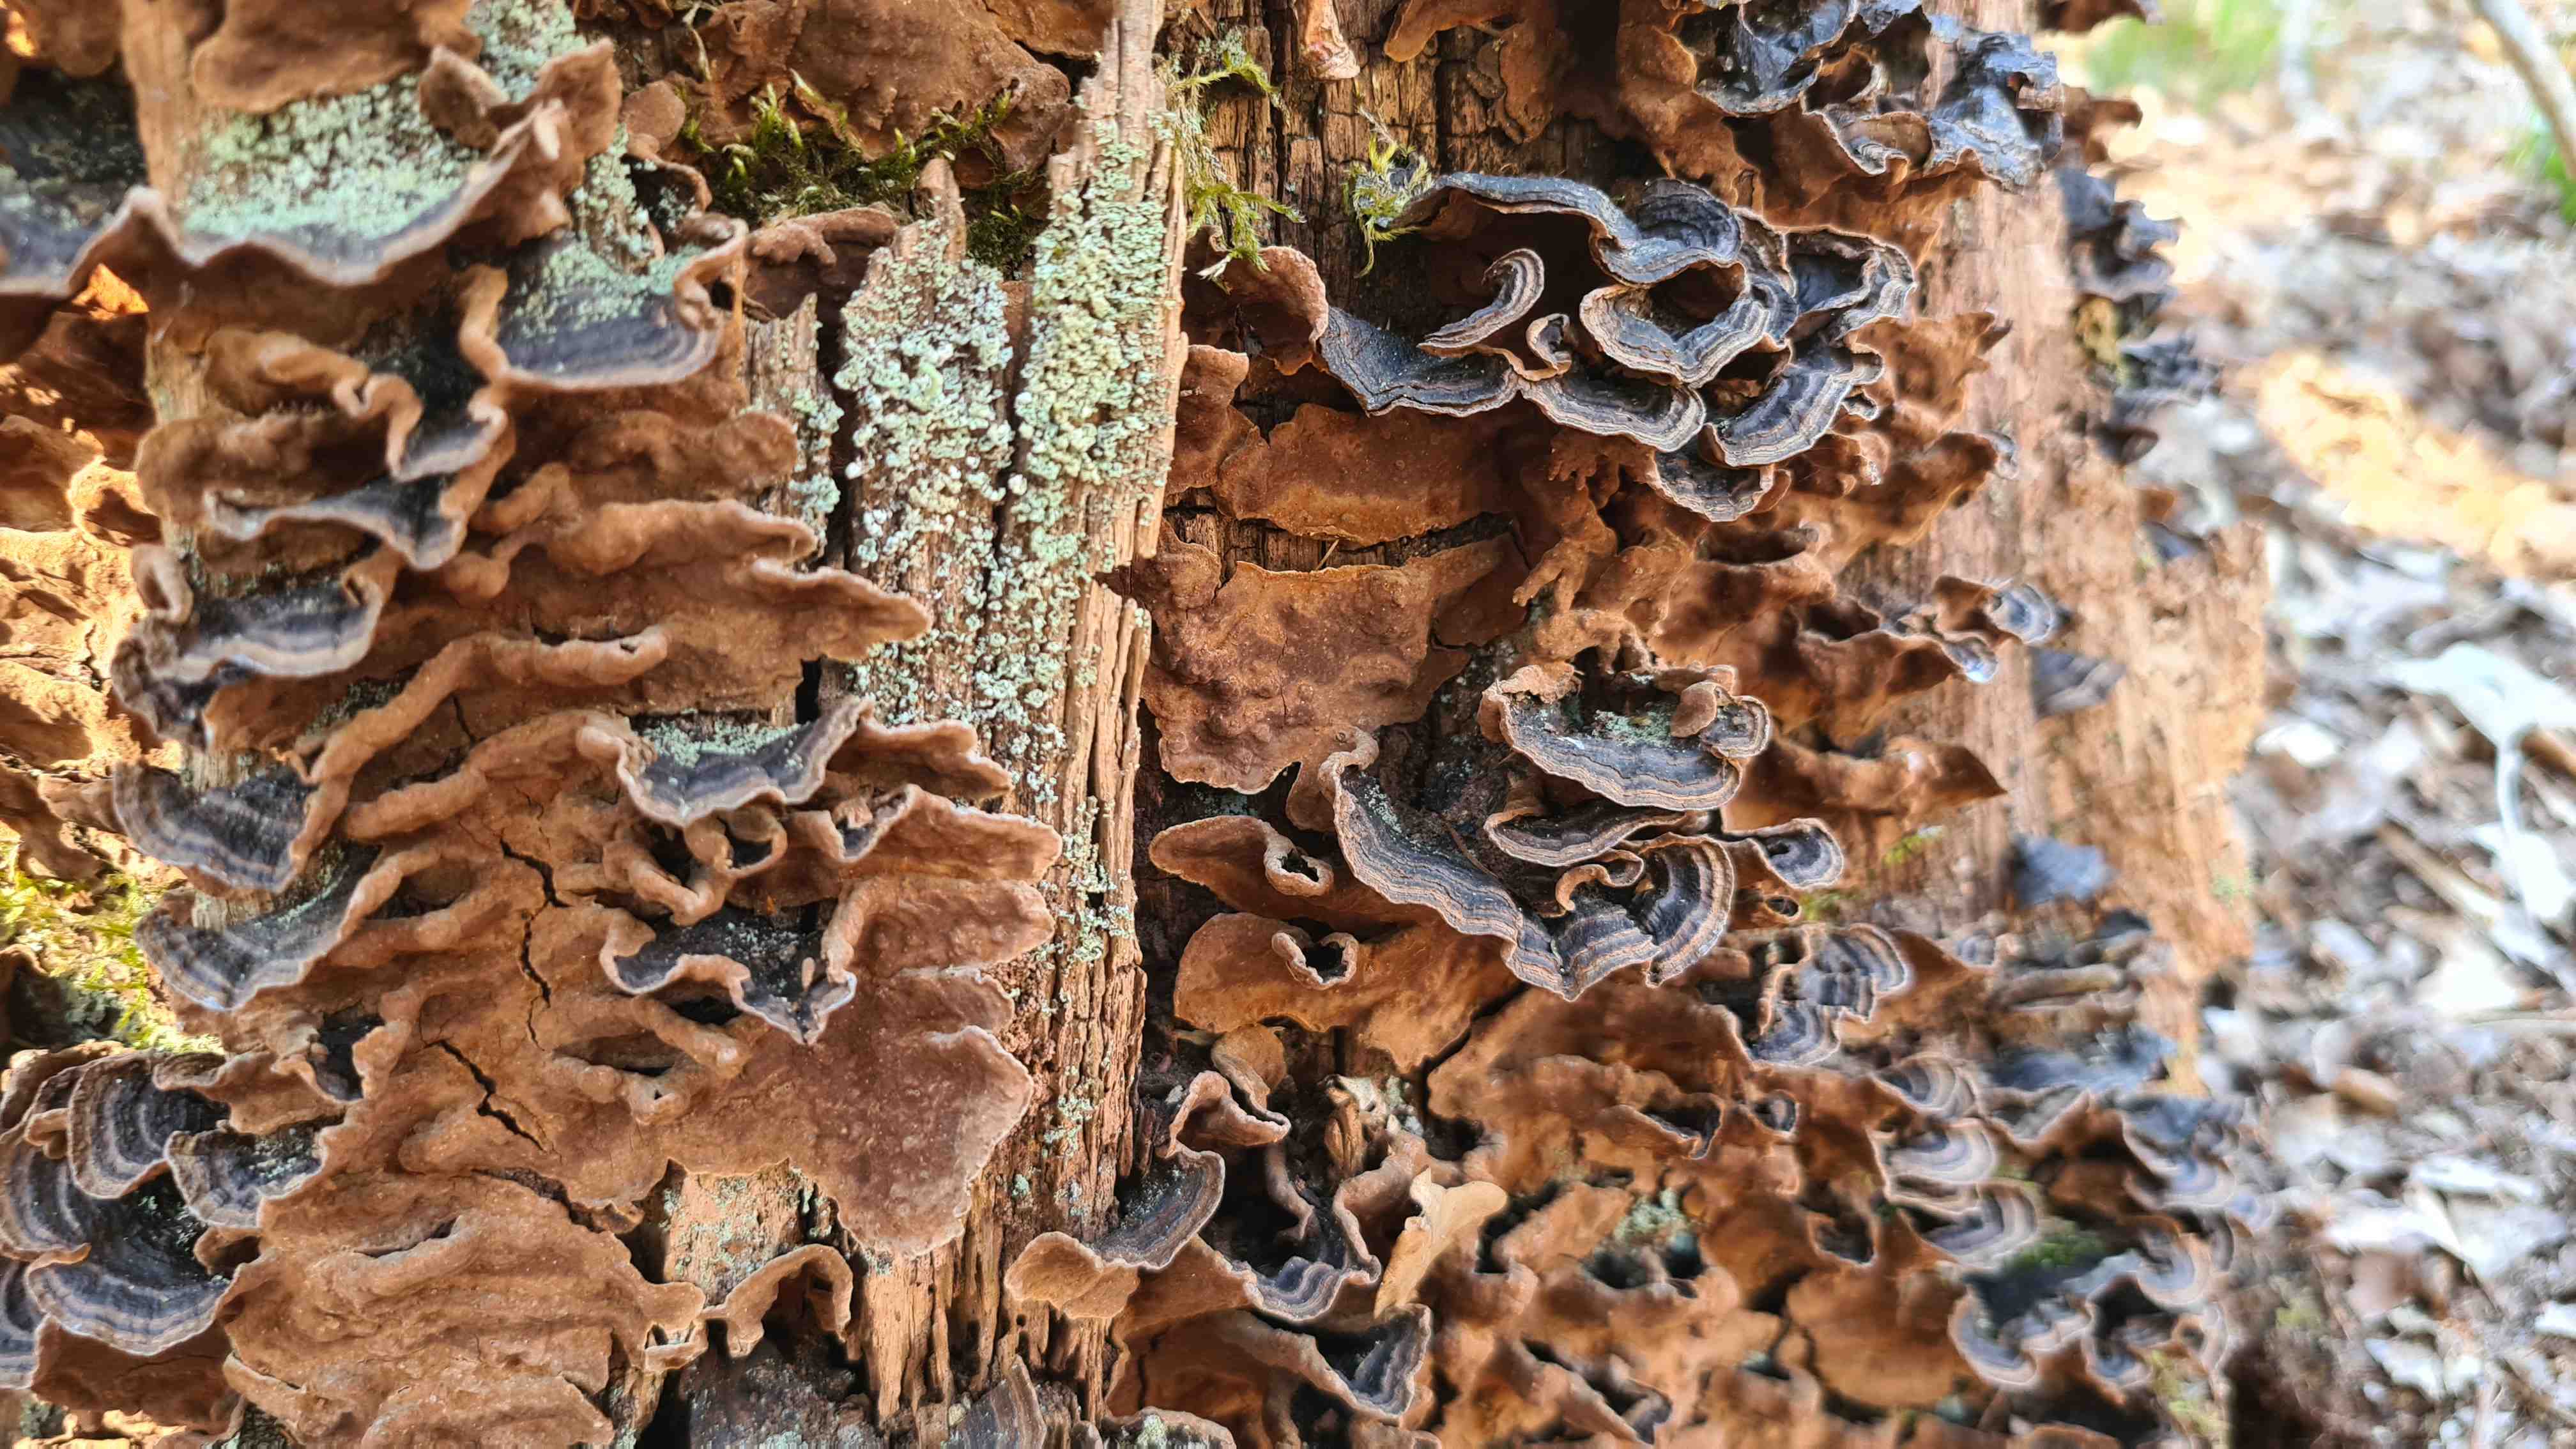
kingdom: Fungi
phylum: Basidiomycota
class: Agaricomycetes
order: Hymenochaetales
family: Hymenochaetaceae
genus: Hymenochaete
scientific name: Hymenochaete rubiginosa
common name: stiv ruslædersvamp
